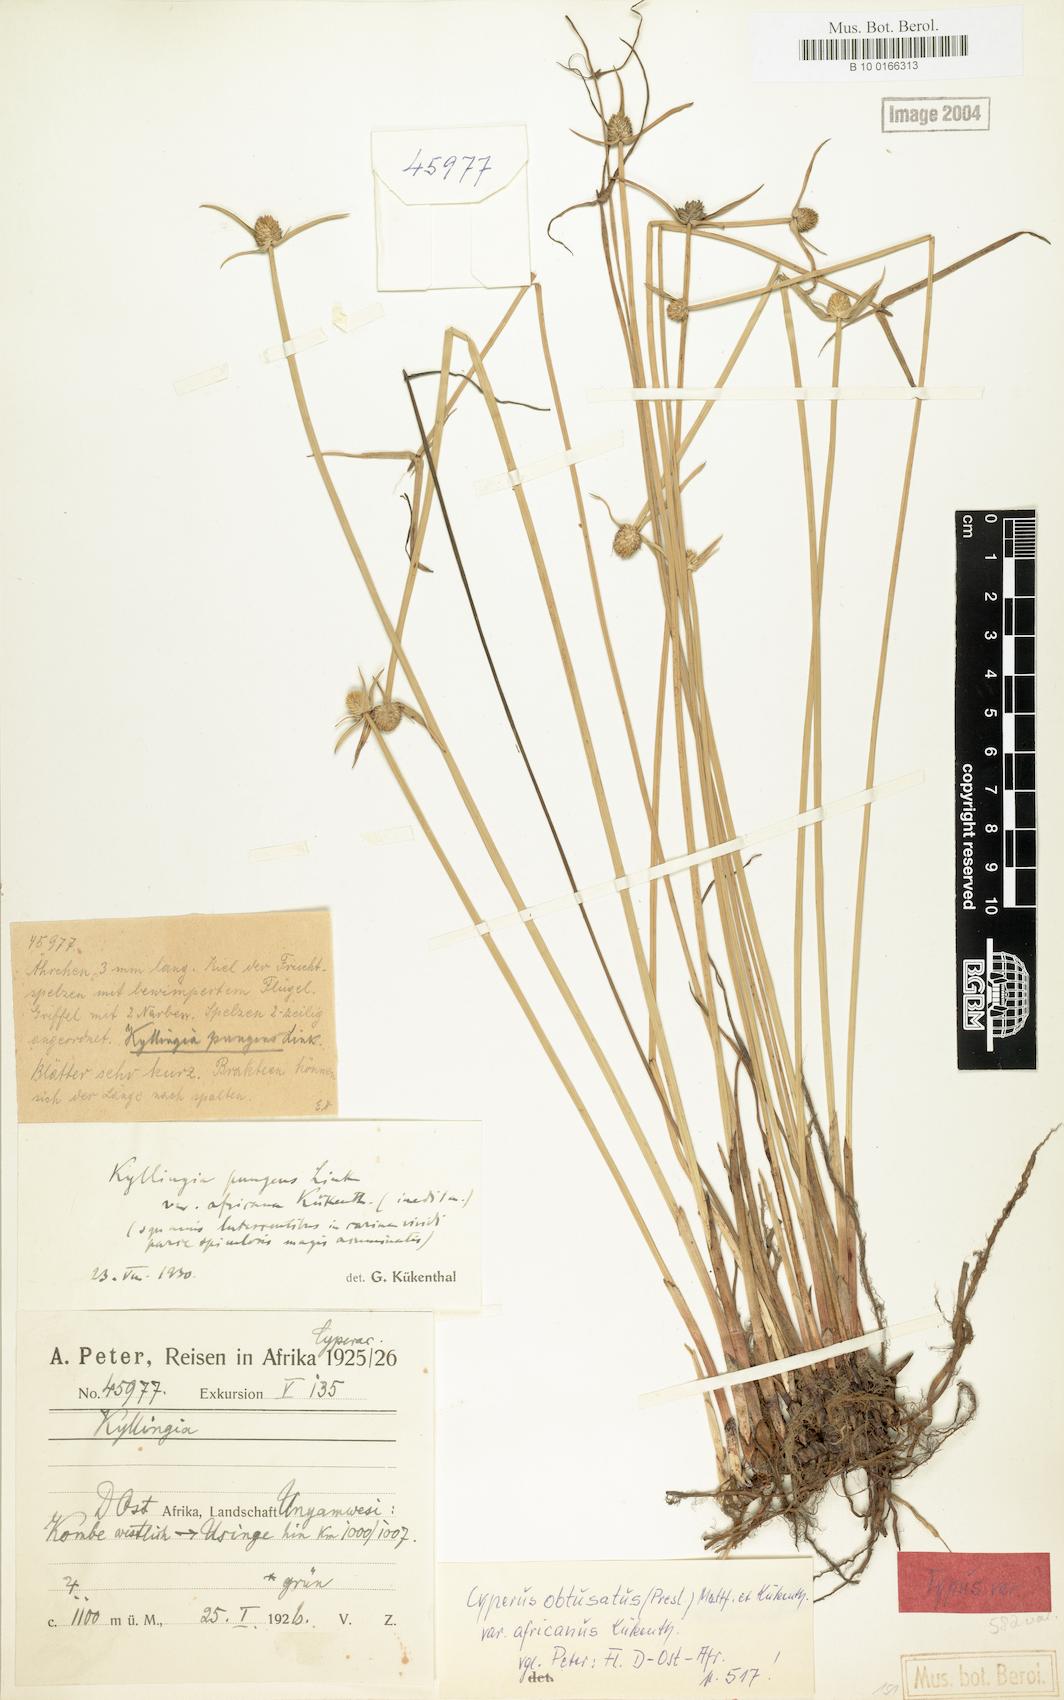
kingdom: Plantae
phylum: Tracheophyta
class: Liliopsida
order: Poales
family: Cyperaceae
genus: Cyperus
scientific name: Cyperus obtusatus
